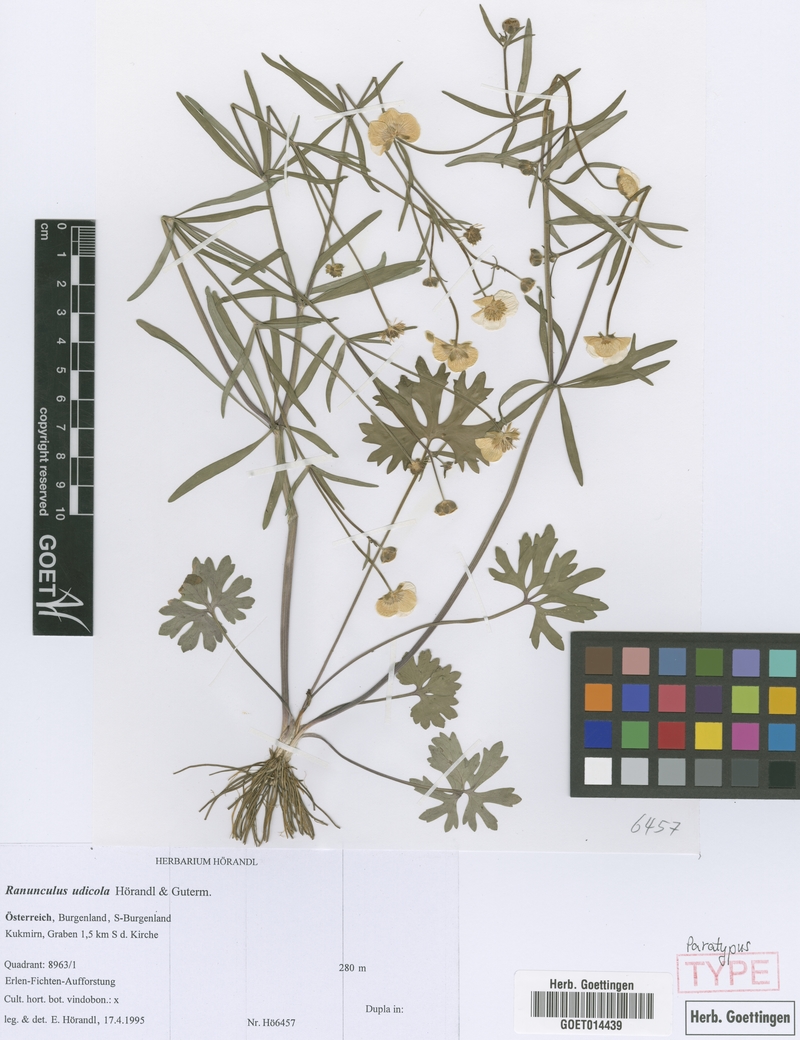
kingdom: Plantae
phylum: Tracheophyta
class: Magnoliopsida
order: Ranunculales
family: Ranunculaceae
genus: Ranunculus
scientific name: Ranunculus udicola
